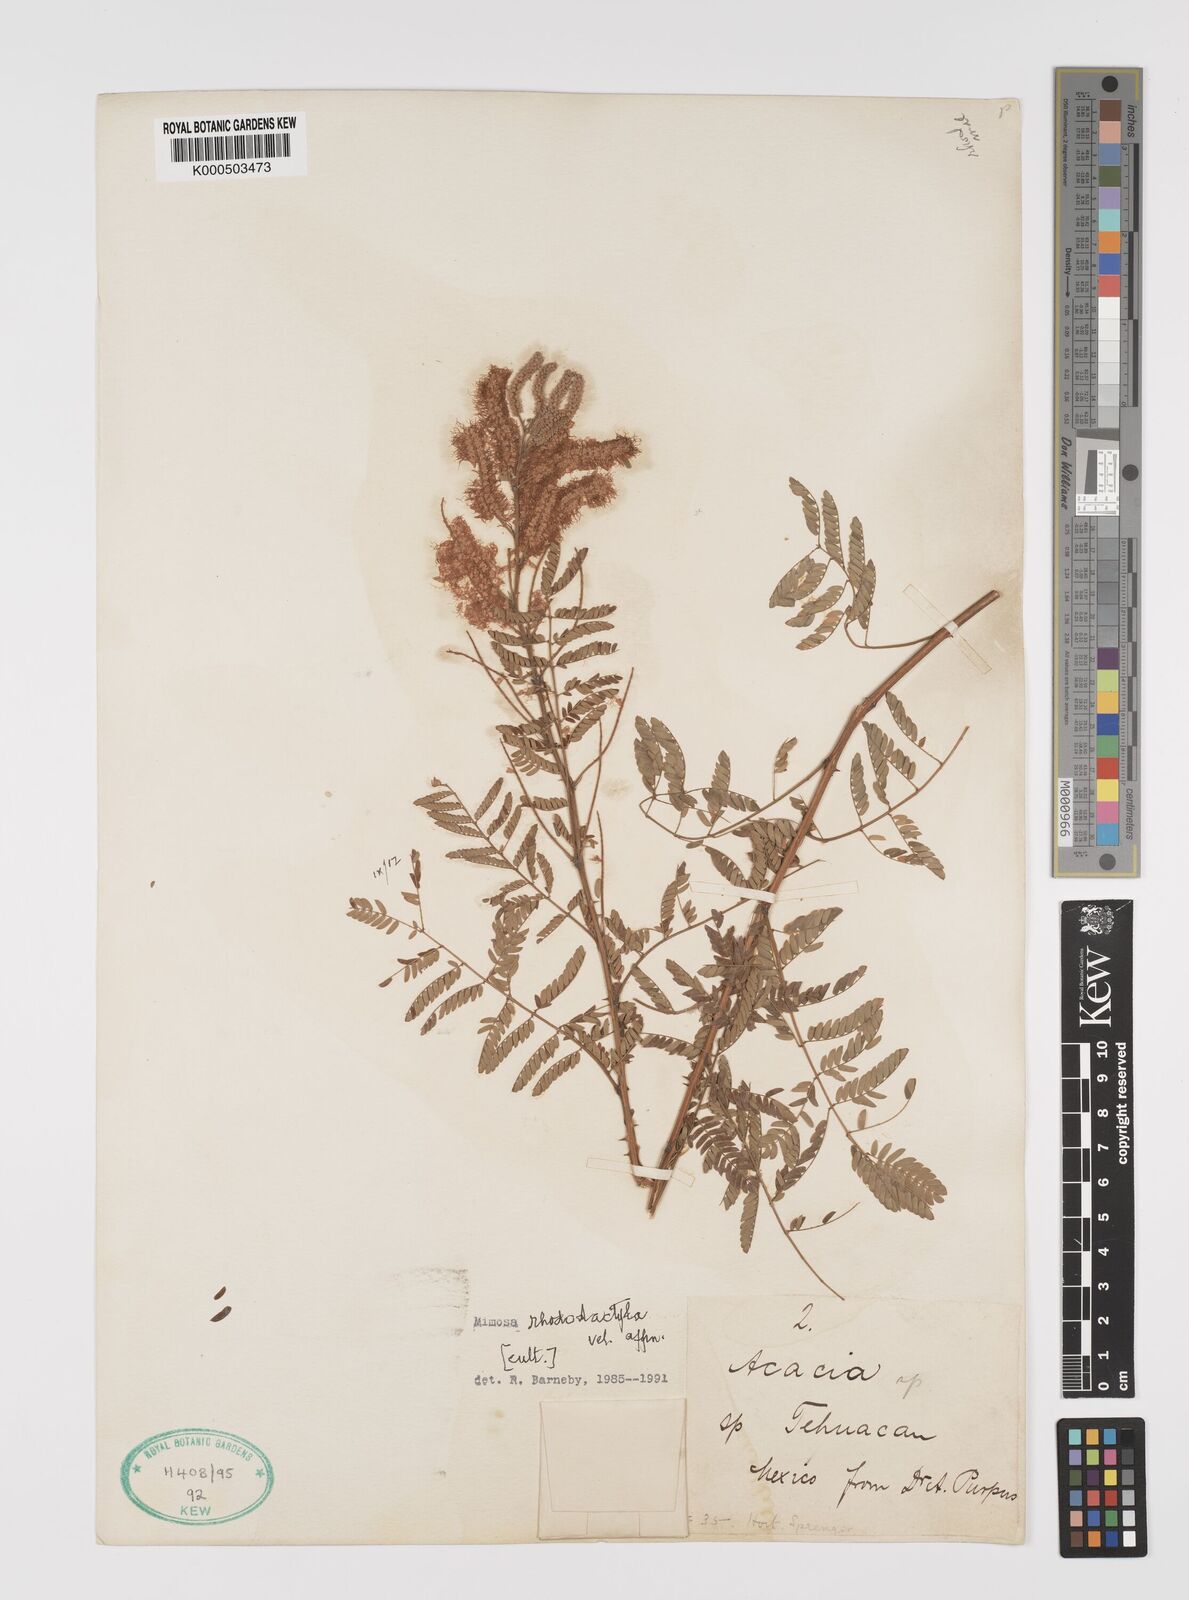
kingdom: Plantae
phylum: Tracheophyta
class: Magnoliopsida
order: Fabales
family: Fabaceae
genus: Mimosa
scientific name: Mimosa rhododactyla
